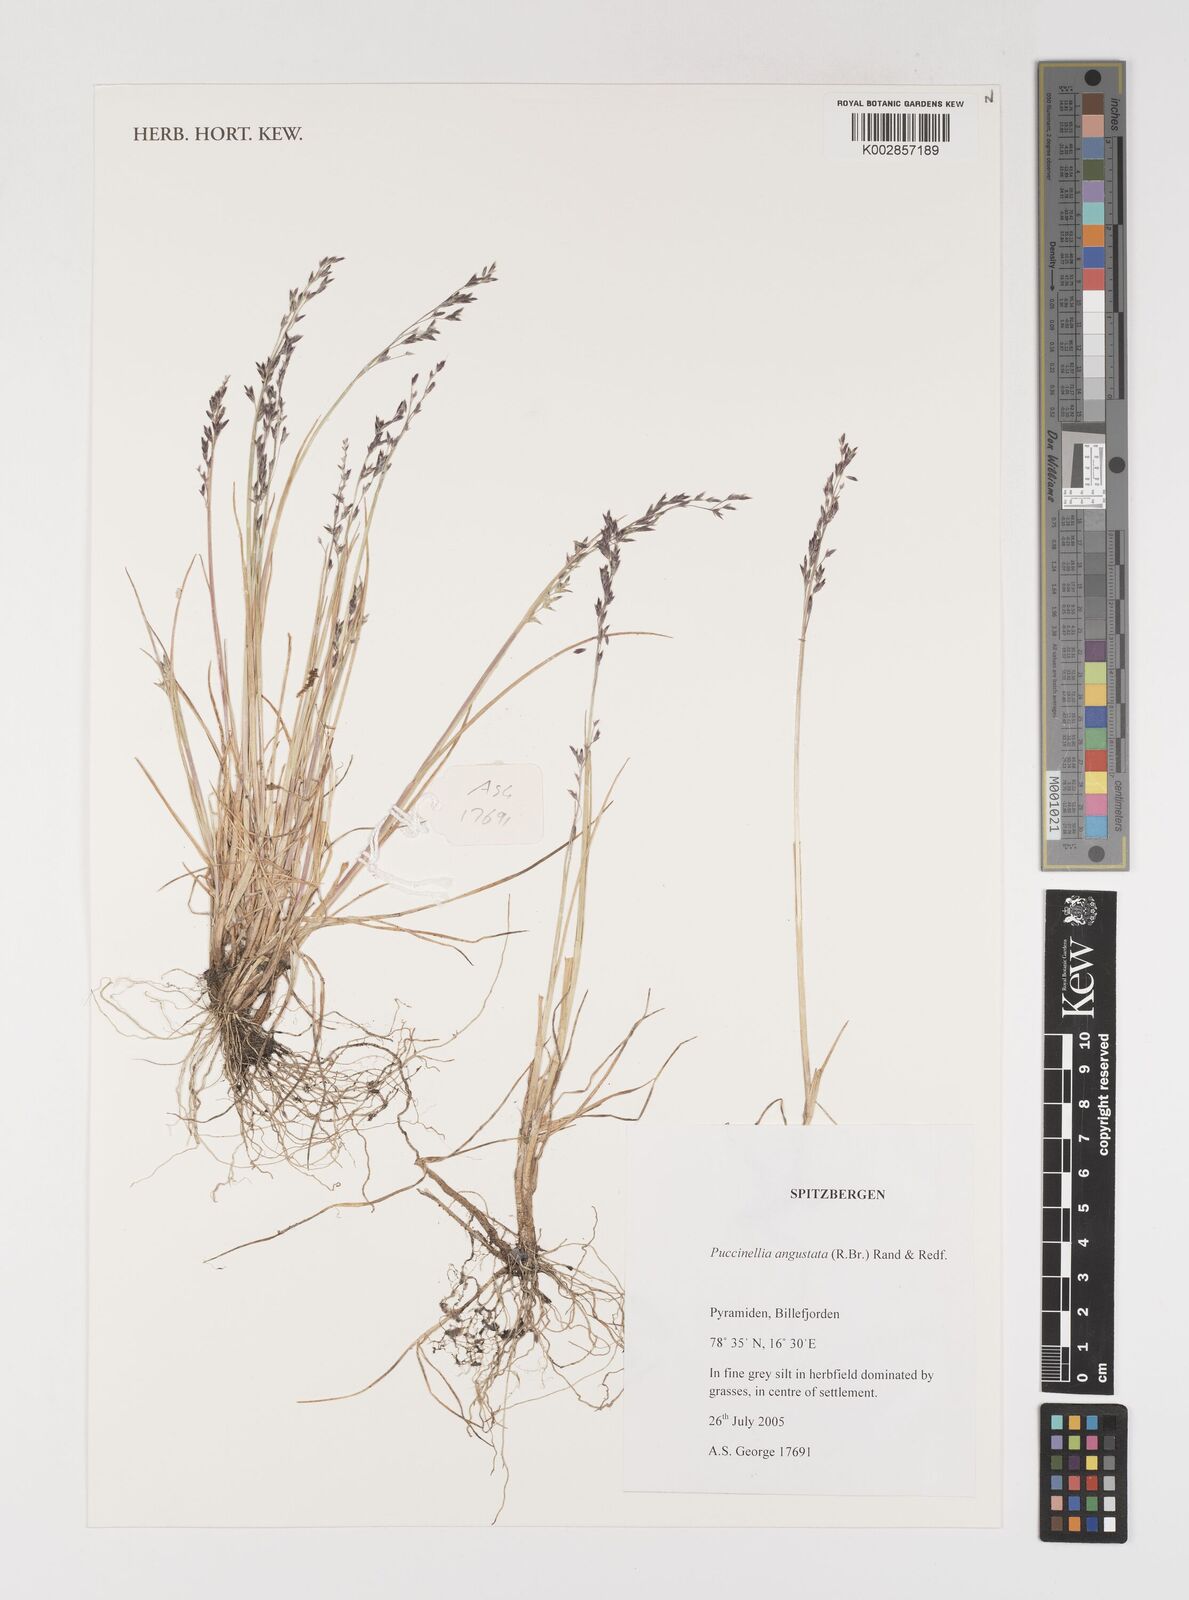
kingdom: Plantae
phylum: Tracheophyta
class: Liliopsida
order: Poales
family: Poaceae
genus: Puccinellia
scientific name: Puccinellia angustata
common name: Narrow alkaligrass
